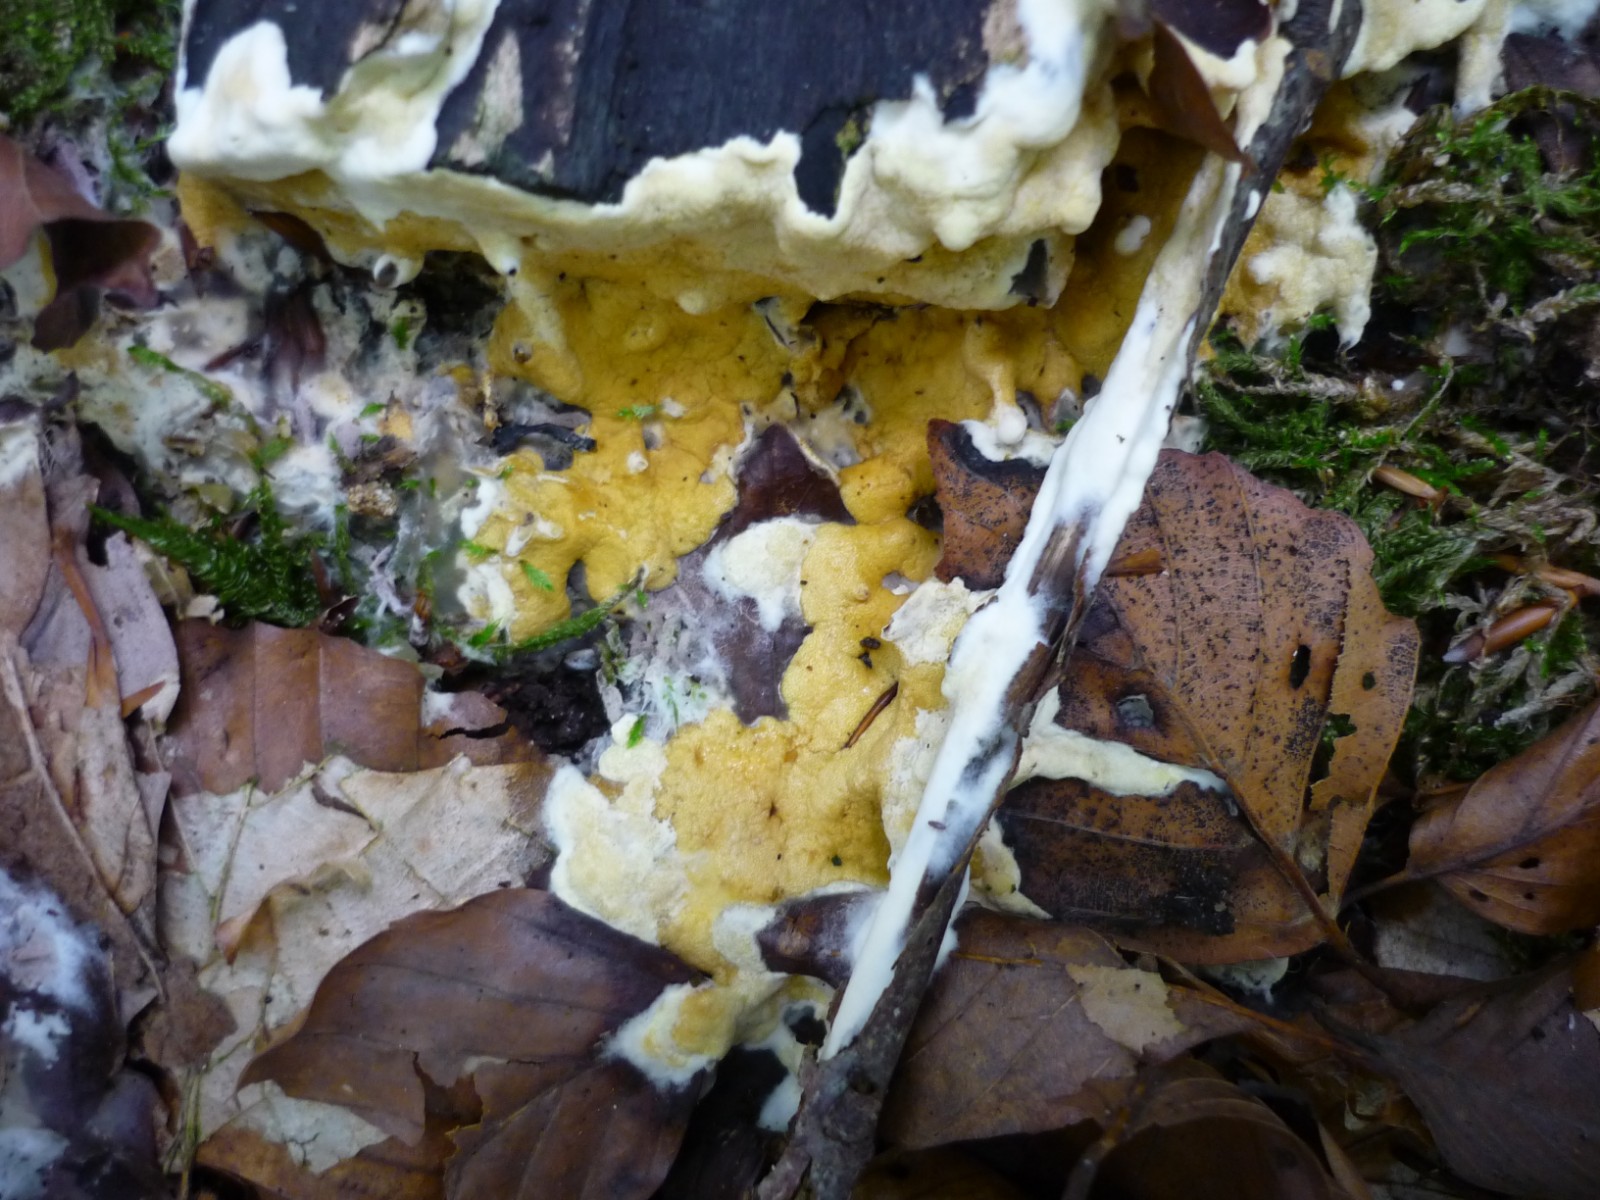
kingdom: Fungi
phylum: Ascomycota
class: Sordariomycetes
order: Hypocreales
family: Hypocreaceae
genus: Trichoderma
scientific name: Trichoderma citrinum
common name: udbredt kødkerne
